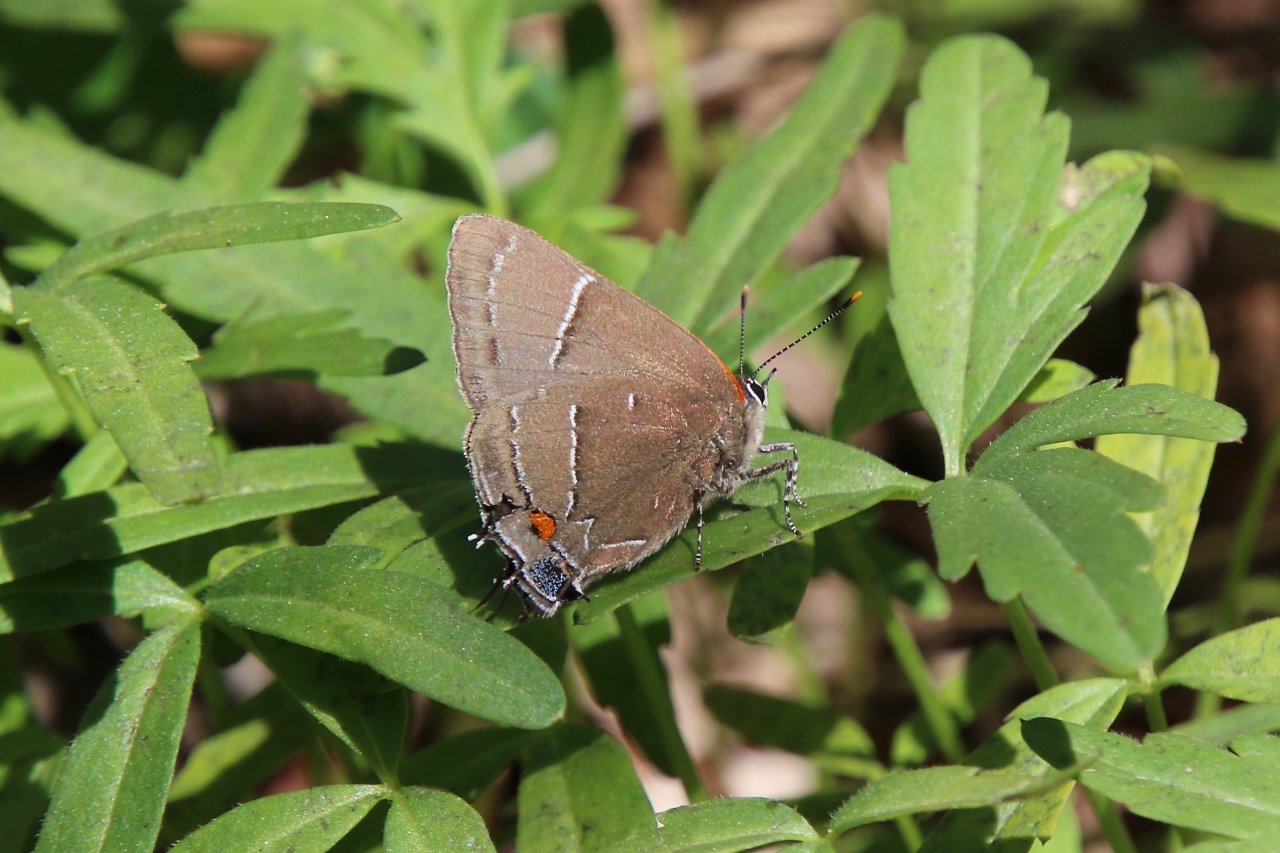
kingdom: Animalia
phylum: Arthropoda
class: Insecta
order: Lepidoptera
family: Lycaenidae
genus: Parrhasius
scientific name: Parrhasius m-album
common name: White-m Hairstreak
